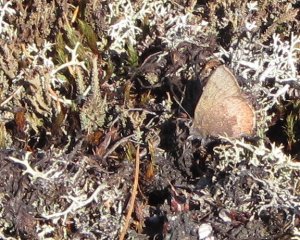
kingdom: Animalia
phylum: Arthropoda
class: Insecta
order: Lepidoptera
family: Lycaenidae
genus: Incisalia
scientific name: Incisalia irioides
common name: Brown Elfin
